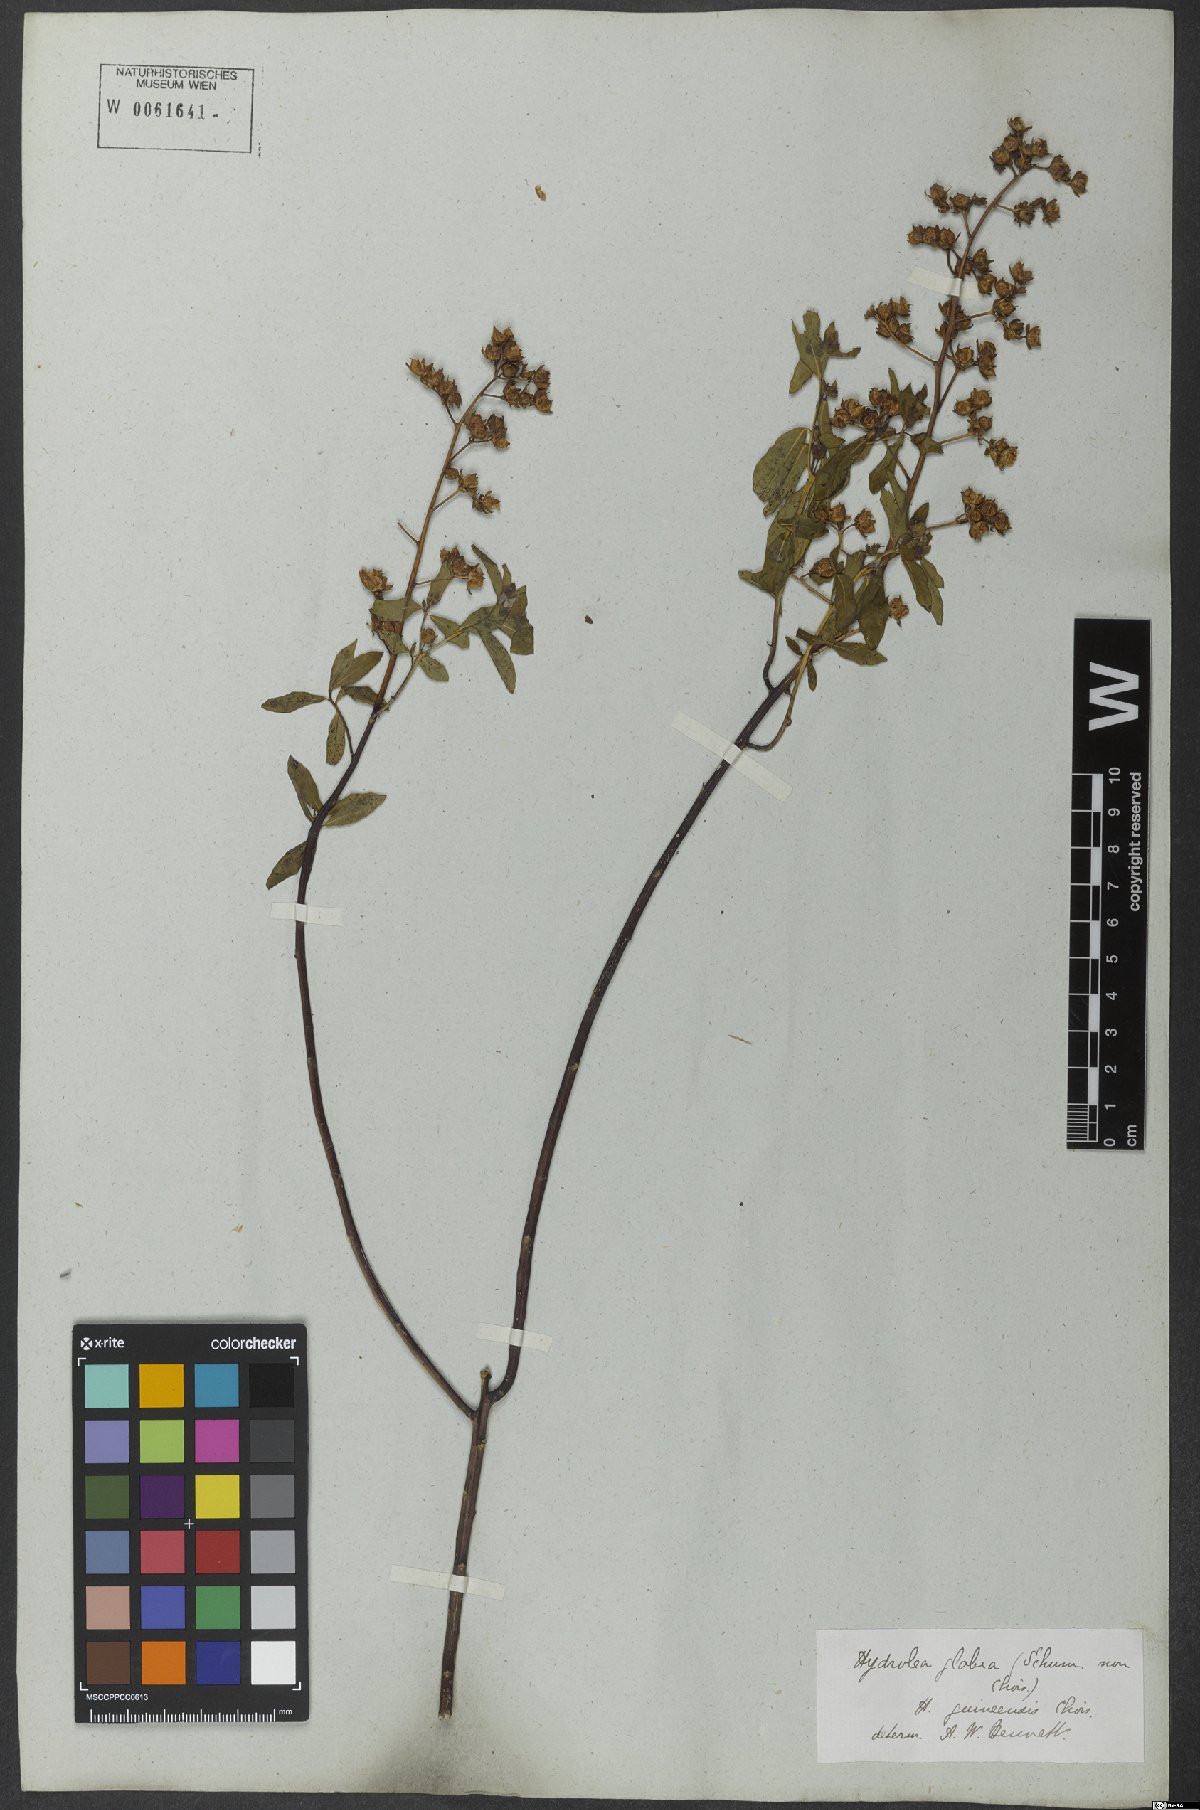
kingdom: Plantae
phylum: Tracheophyta
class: Magnoliopsida
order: Solanales
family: Hydroleaceae
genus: Hydrolea
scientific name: Hydrolea palustris
